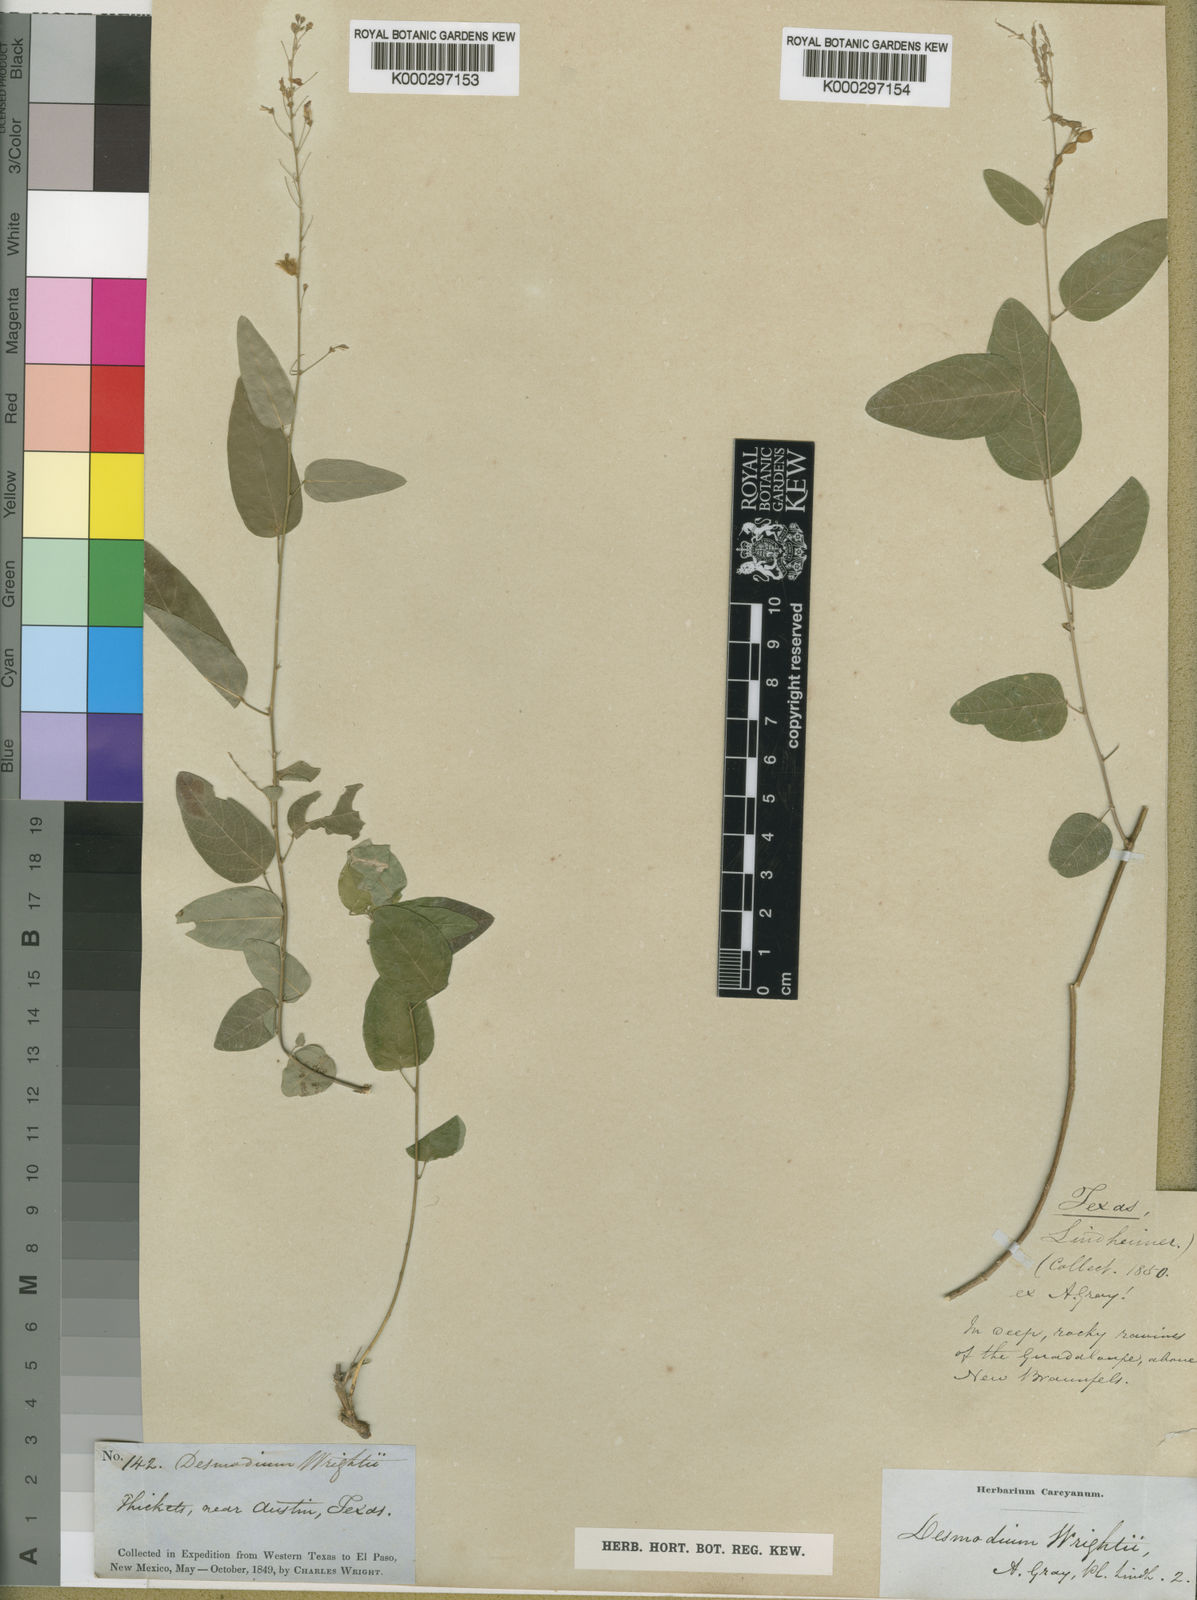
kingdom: Plantae
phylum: Tracheophyta
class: Magnoliopsida
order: Fabales
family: Fabaceae
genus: Desmodium
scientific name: Desmodium psilophyllum
